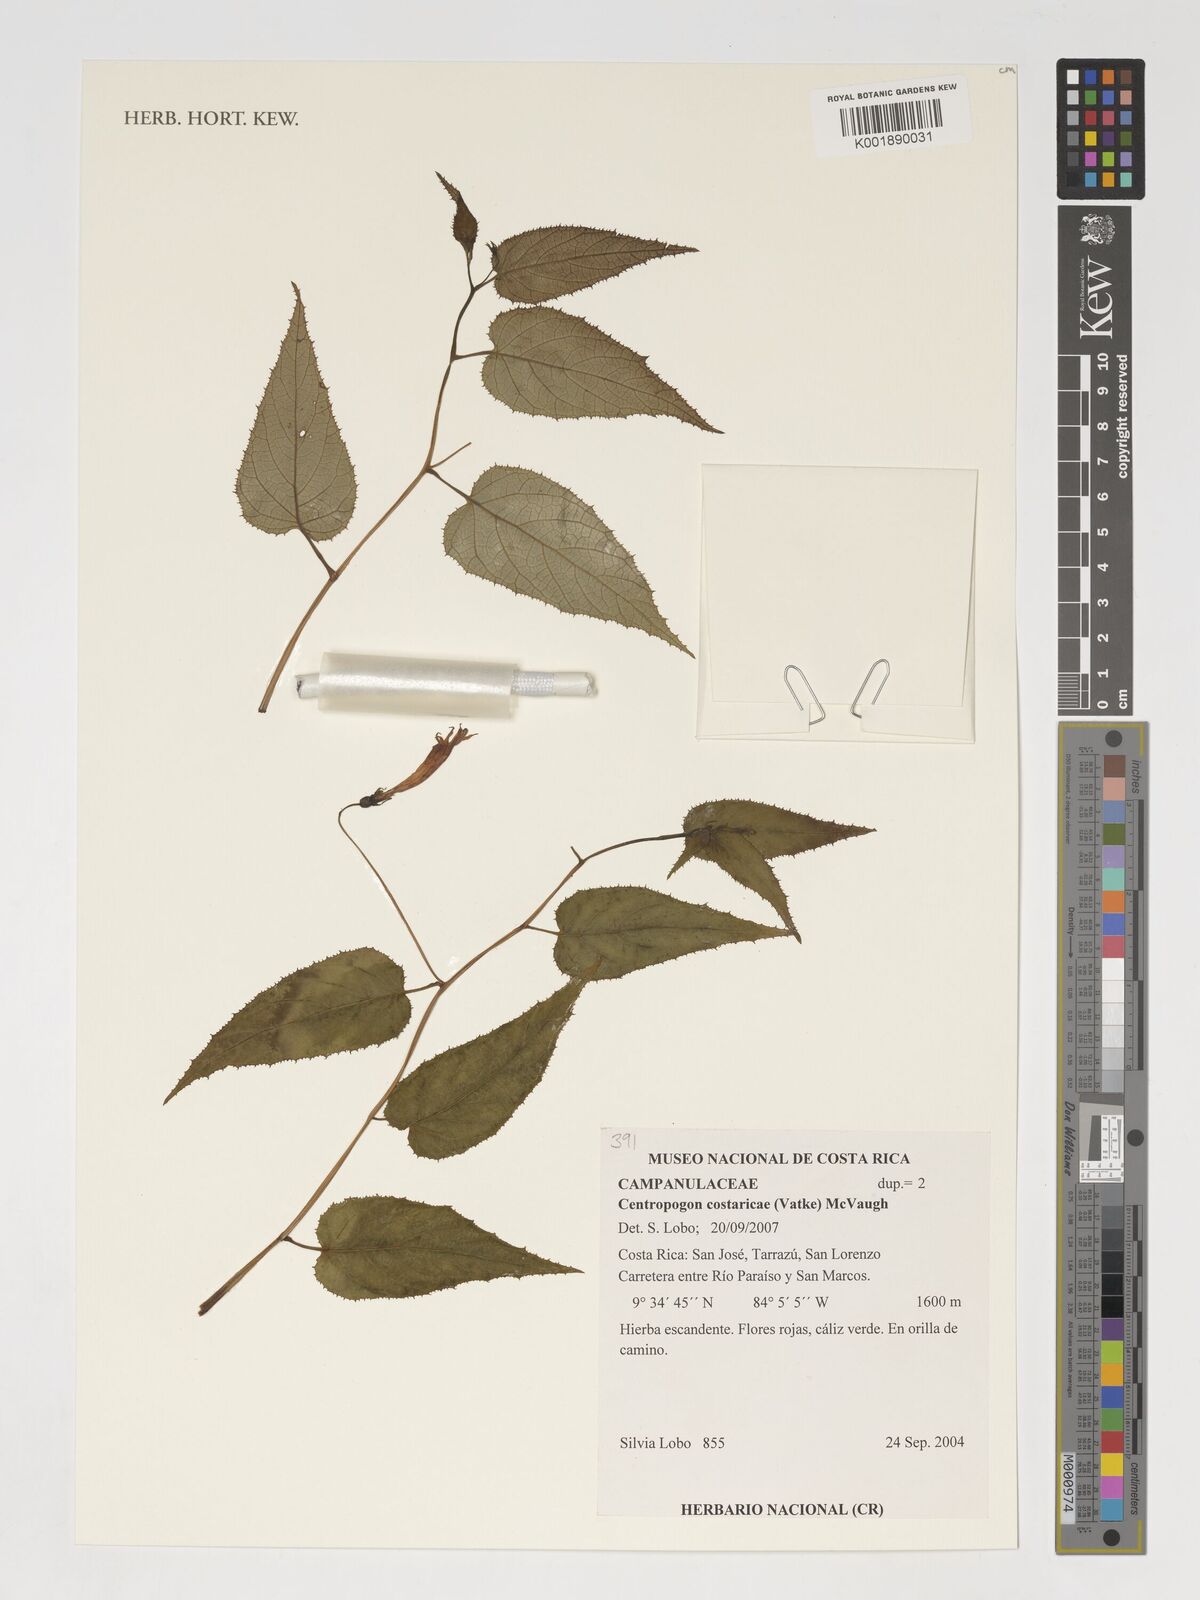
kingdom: Plantae
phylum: Tracheophyta
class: Magnoliopsida
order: Asterales
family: Campanulaceae
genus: Centropogon
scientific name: Centropogon costaricae
